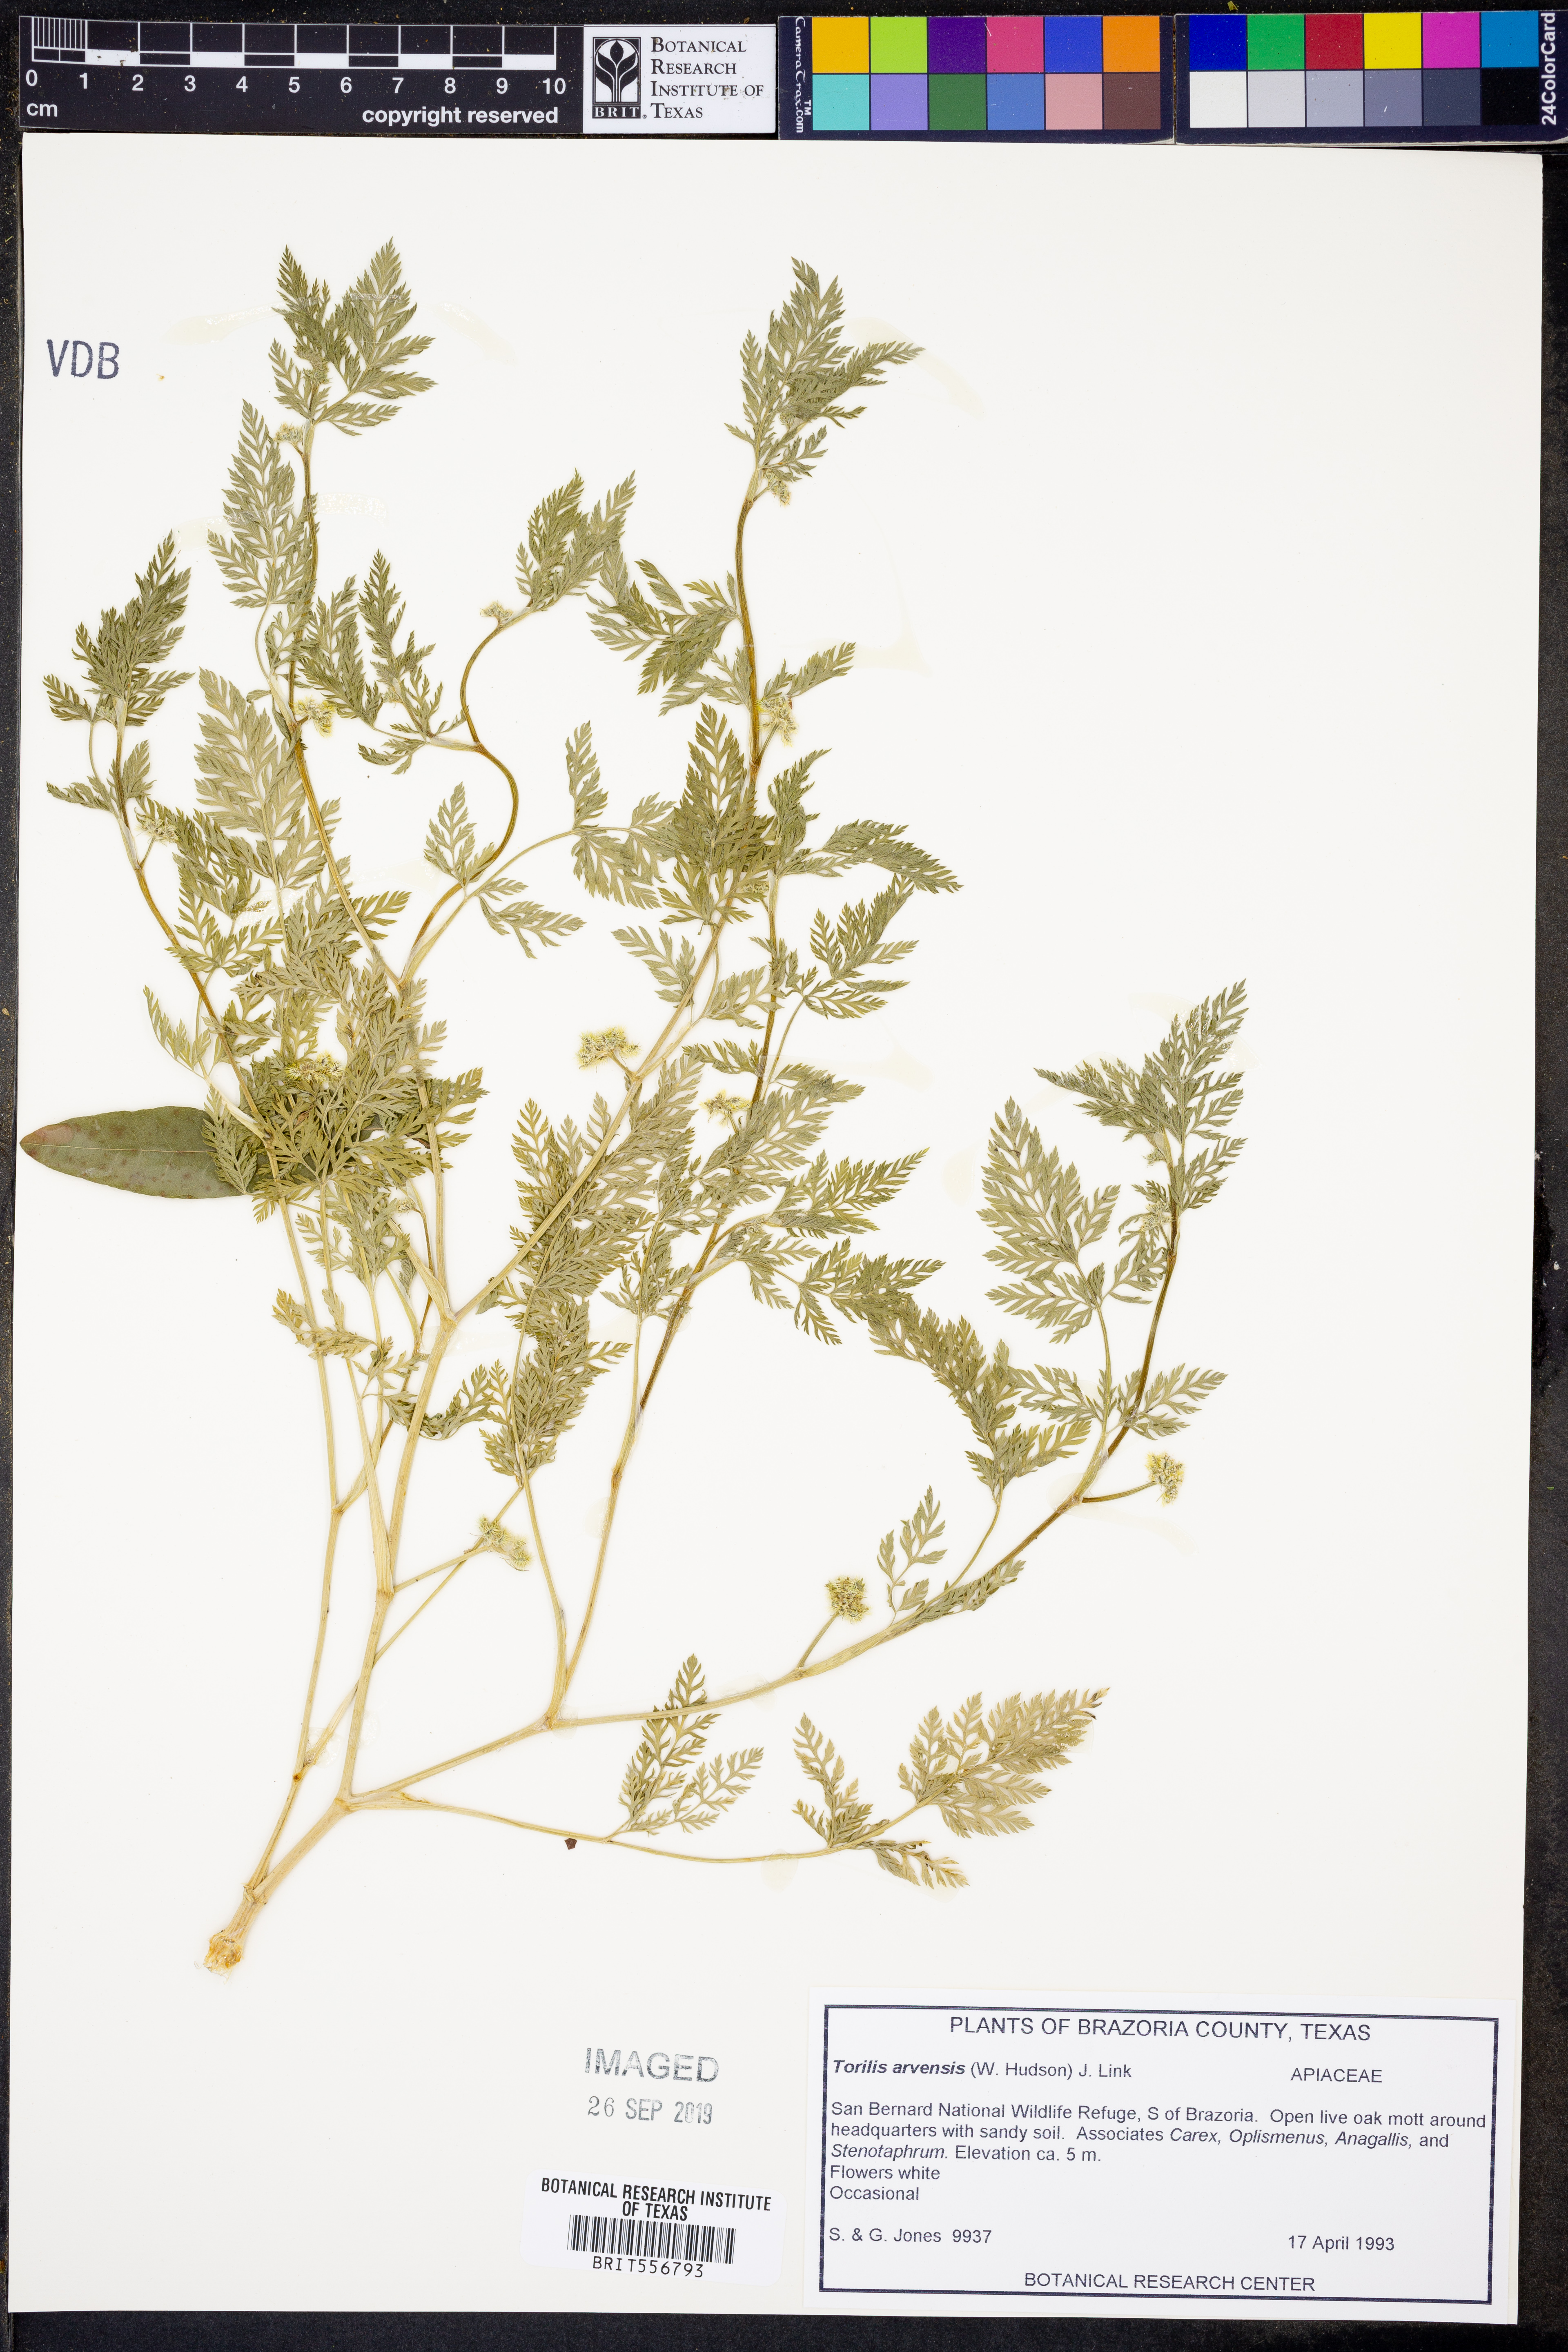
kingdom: Plantae
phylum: Tracheophyta
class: Magnoliopsida
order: Apiales
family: Apiaceae
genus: Torilis
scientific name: Torilis arvensis
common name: Spreading hedge-parsley
